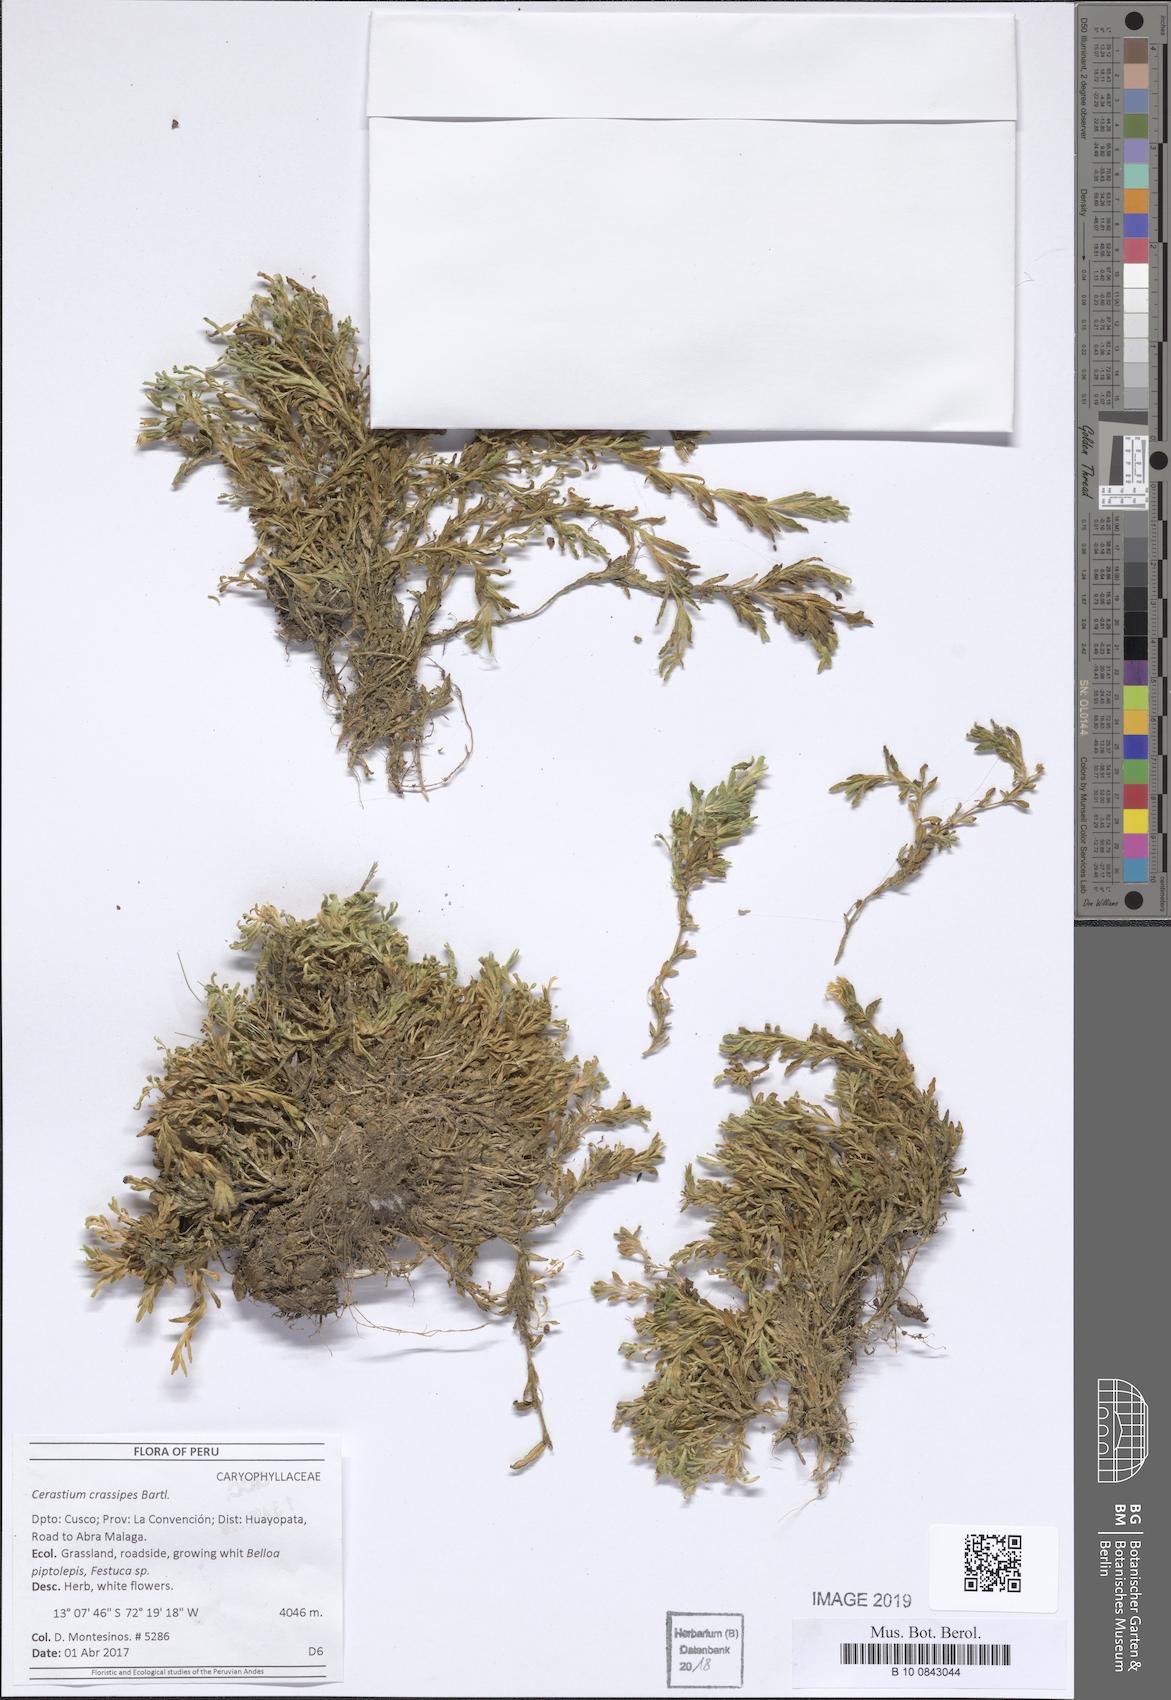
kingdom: Plantae
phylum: Tracheophyta
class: Magnoliopsida
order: Caryophyllales
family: Caryophyllaceae
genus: Cerastium
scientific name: Cerastium crassipes
